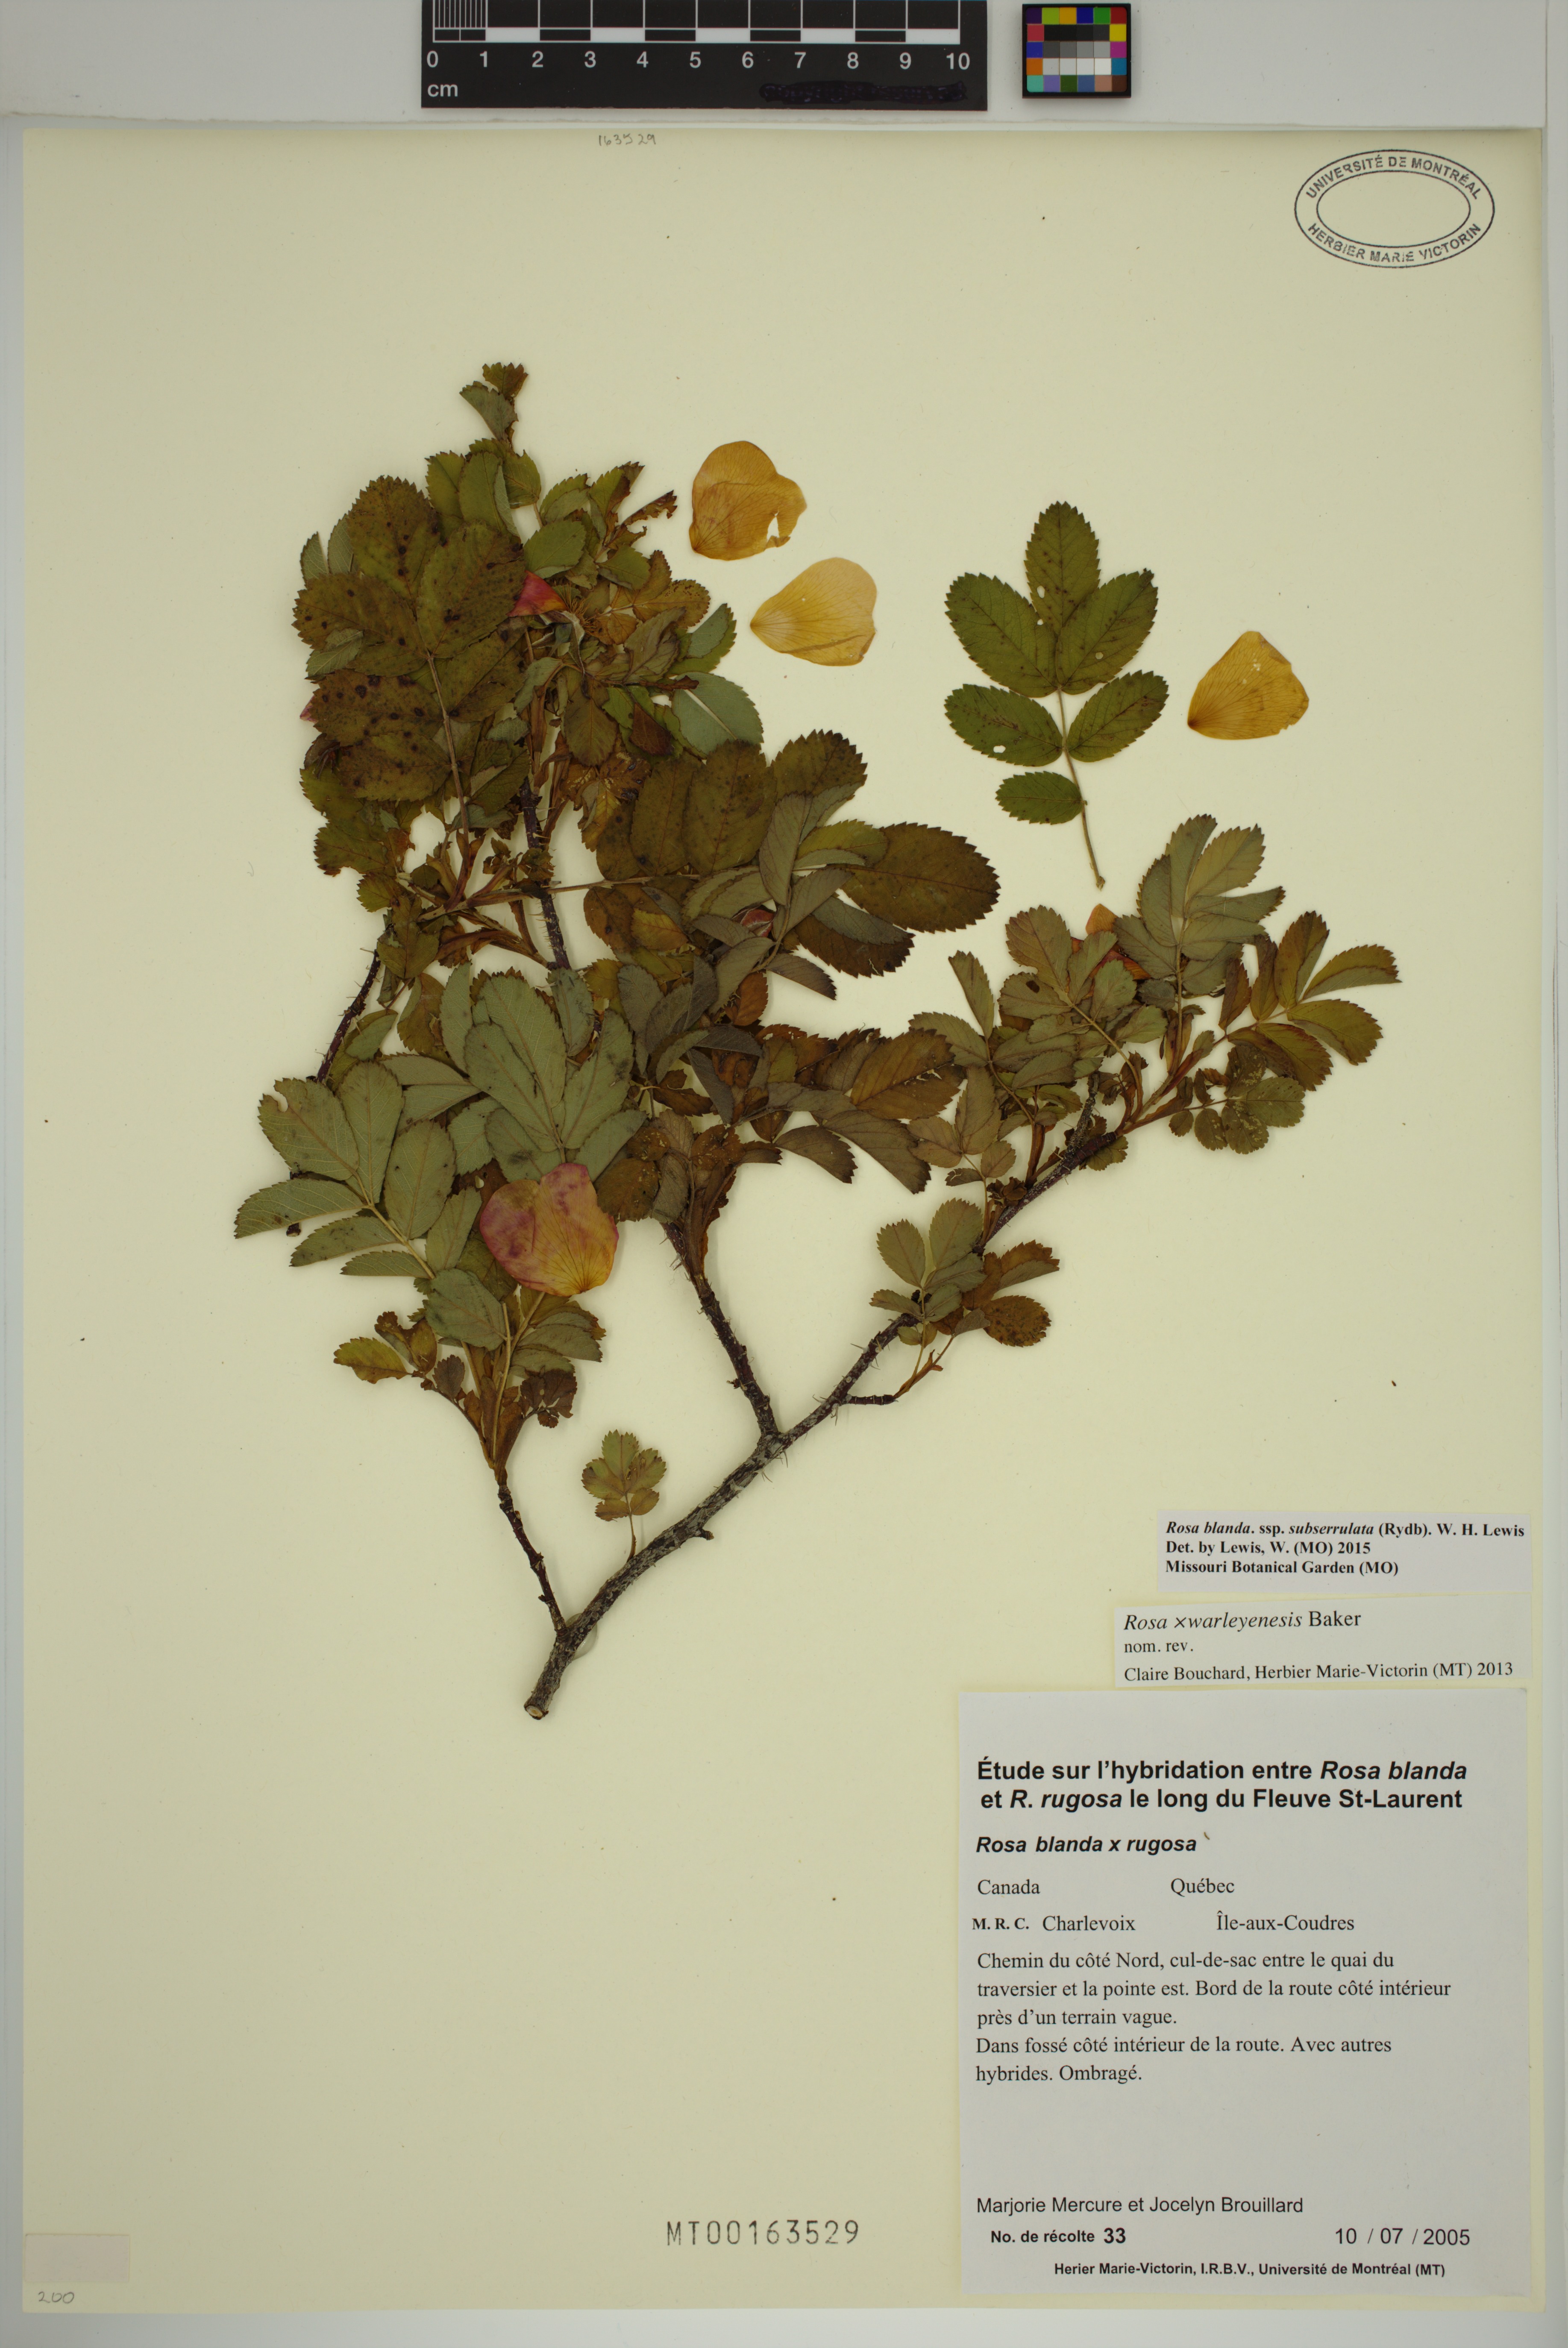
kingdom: Plantae
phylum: Tracheophyta
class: Magnoliopsida
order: Rosales
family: Rosaceae
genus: Rosa
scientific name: Rosa blanda
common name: Smooth rose
